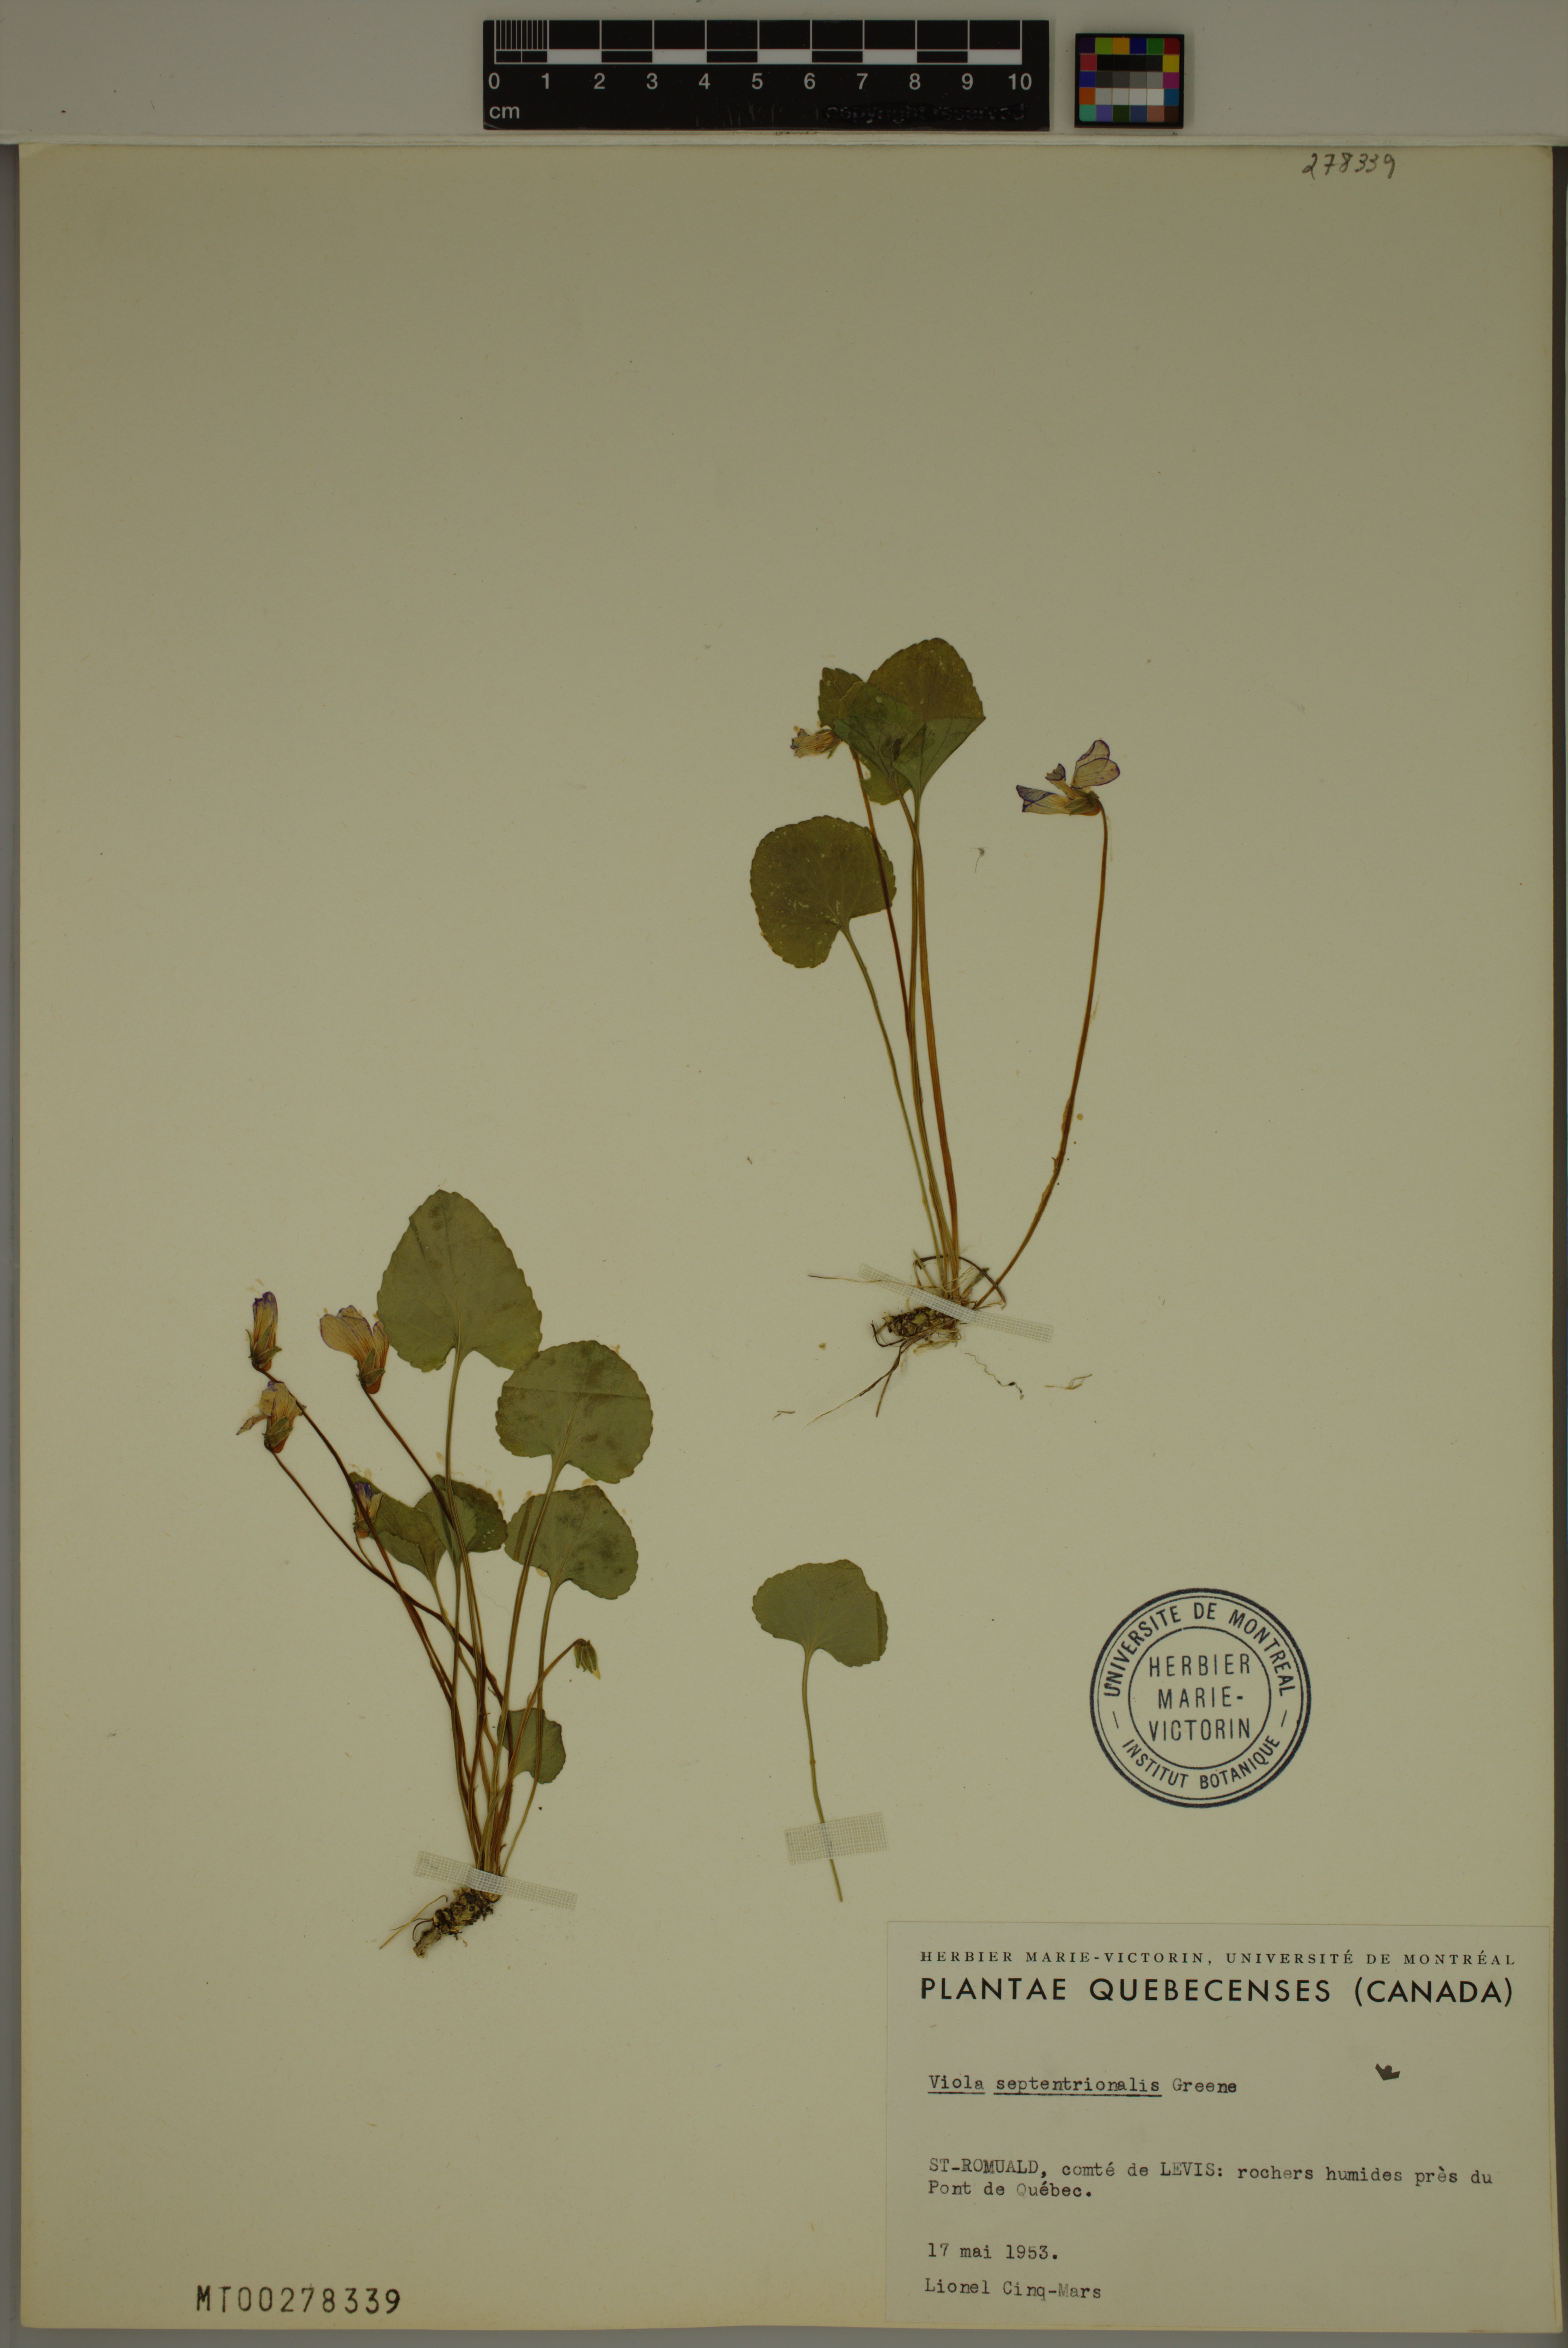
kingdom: Plantae
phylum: Tracheophyta
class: Magnoliopsida
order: Malpighiales
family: Violaceae
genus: Viola
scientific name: Viola septentrionalis
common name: Northern woodland violet
